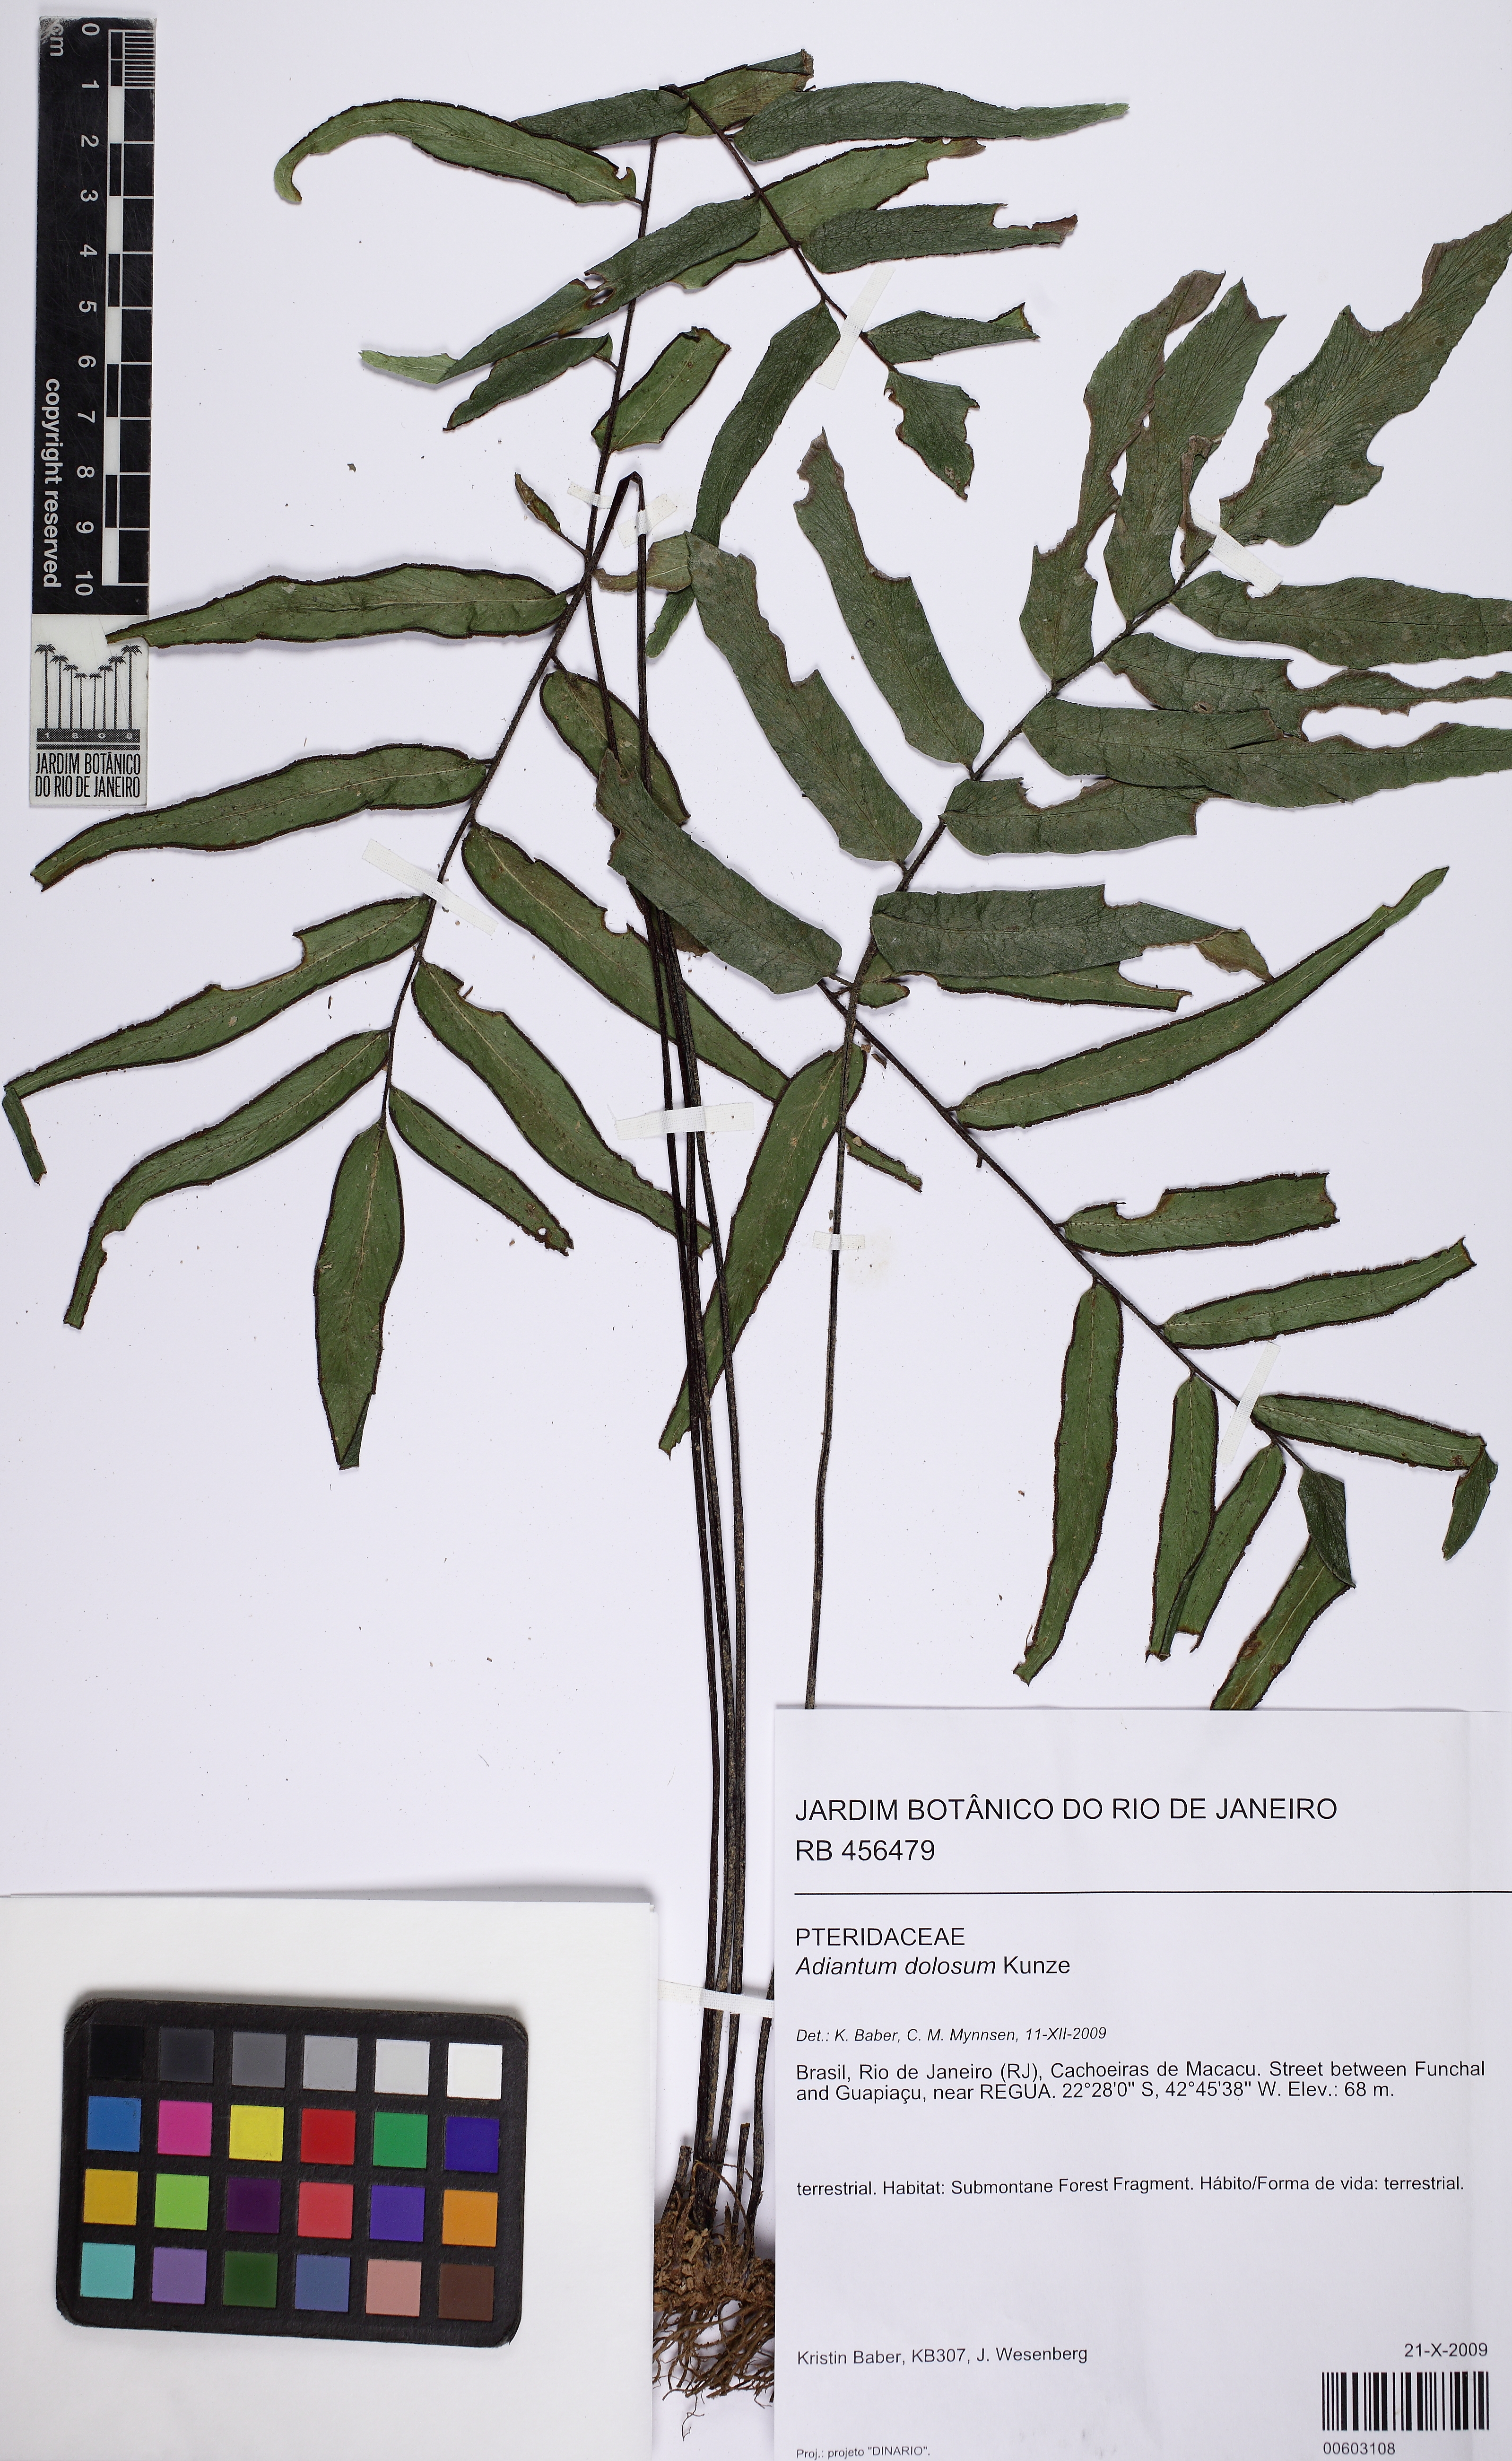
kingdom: Plantae
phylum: Tracheophyta
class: Polypodiopsida
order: Polypodiales
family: Pteridaceae
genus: Adiantum
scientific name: Adiantum dolosum
